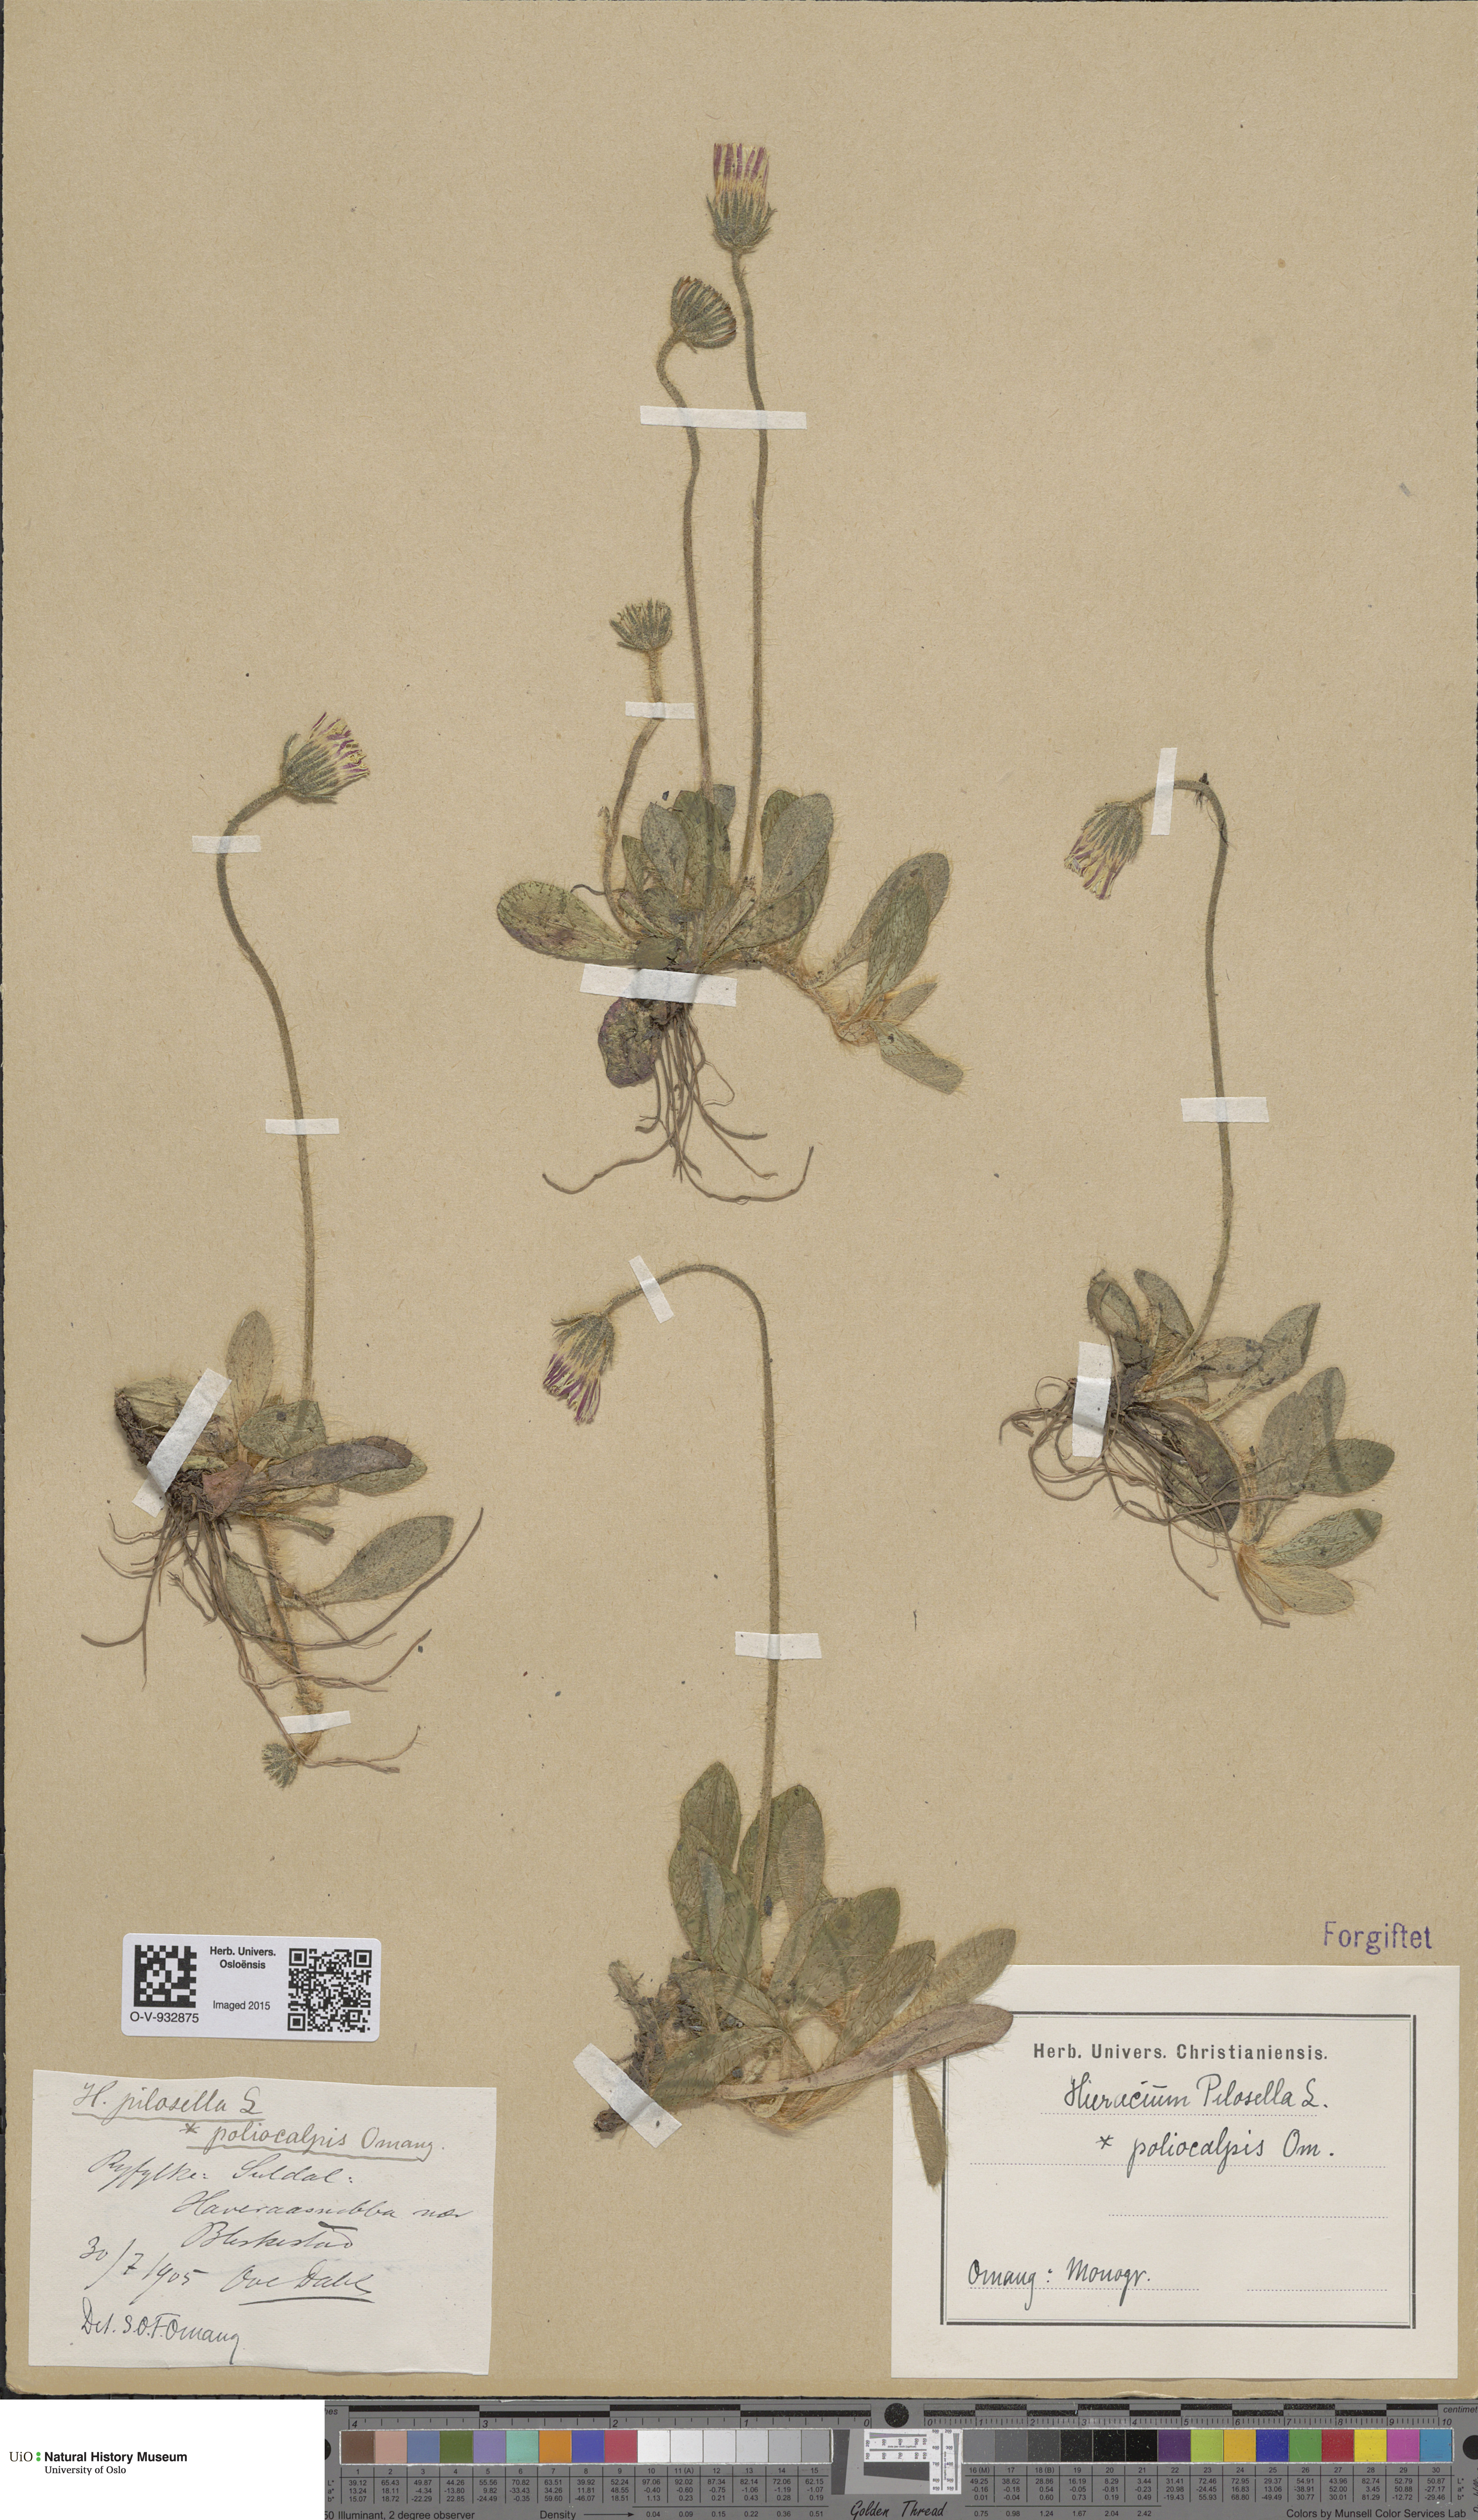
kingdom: Plantae
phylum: Tracheophyta
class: Magnoliopsida
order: Asterales
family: Asteraceae
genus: Pilosella
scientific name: Pilosella officinarum
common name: Mouse-ear hawkweed
